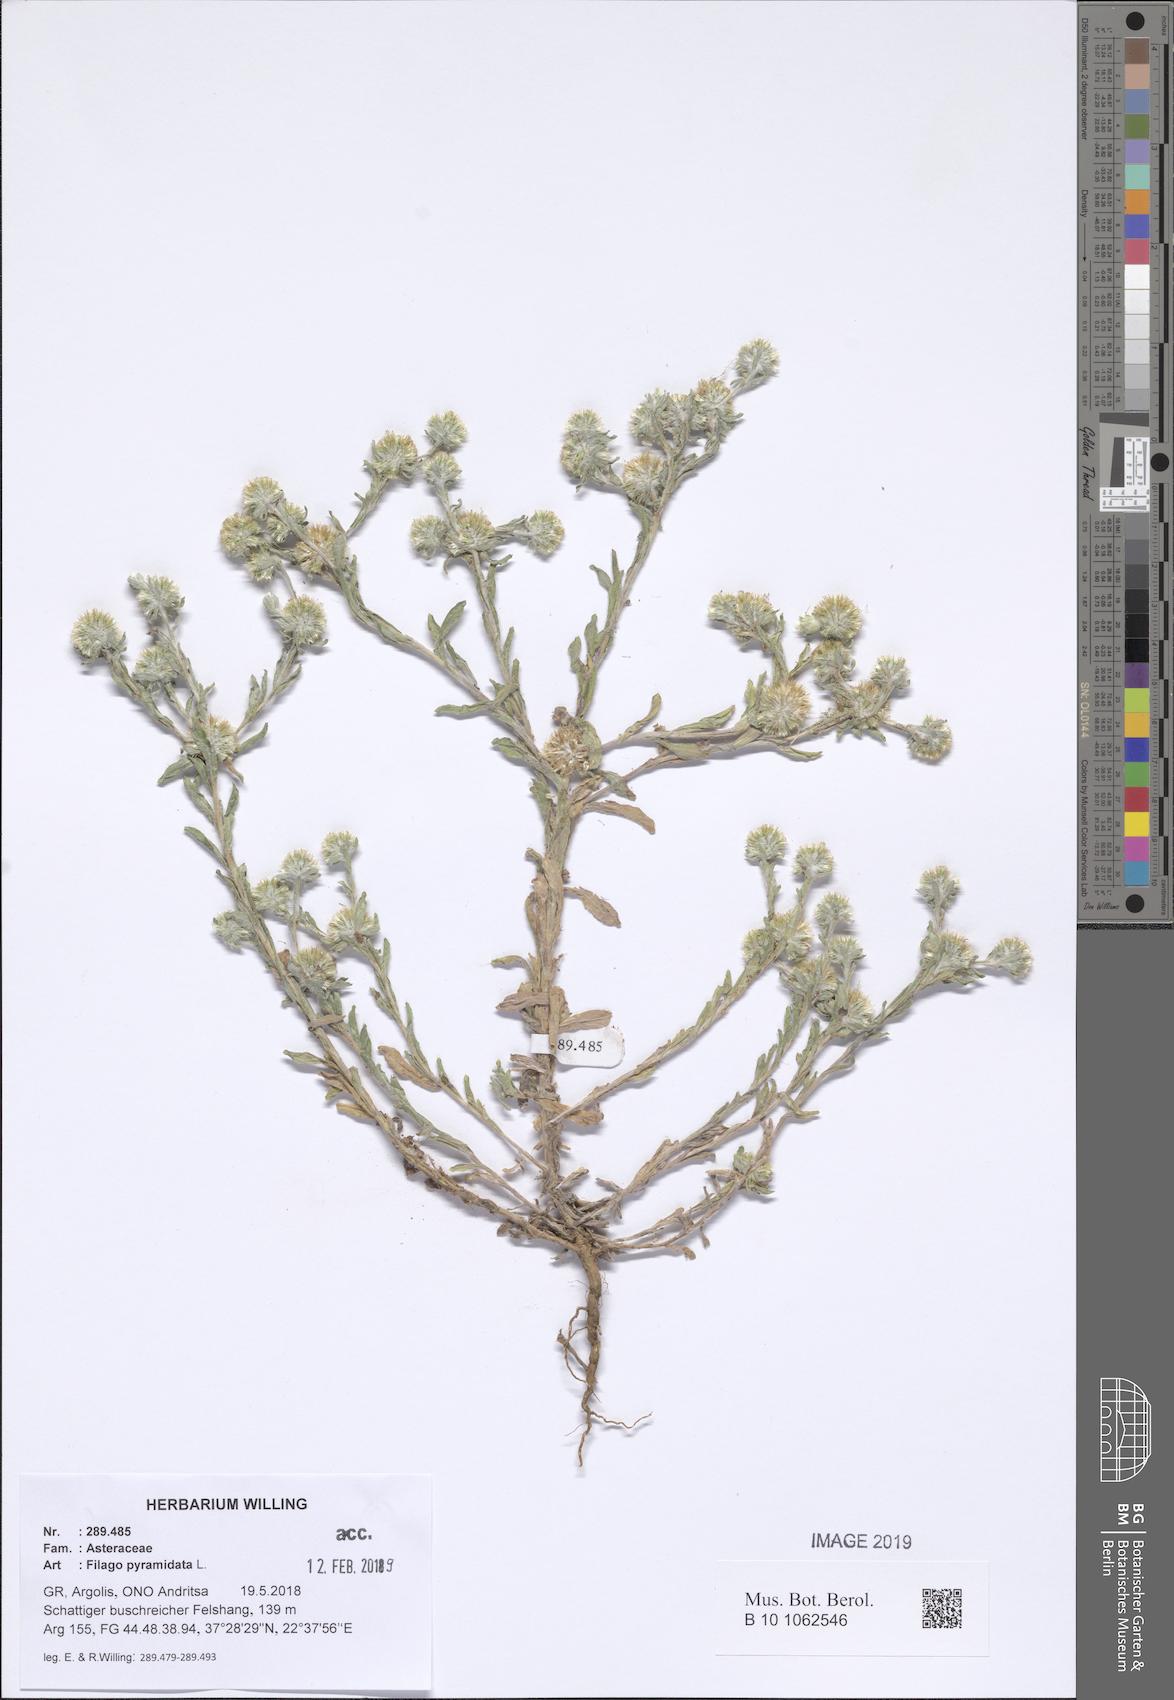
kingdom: Plantae
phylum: Tracheophyta
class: Magnoliopsida
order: Asterales
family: Asteraceae
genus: Filago
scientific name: Filago pyramidata
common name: Broad-leaved cudweed
